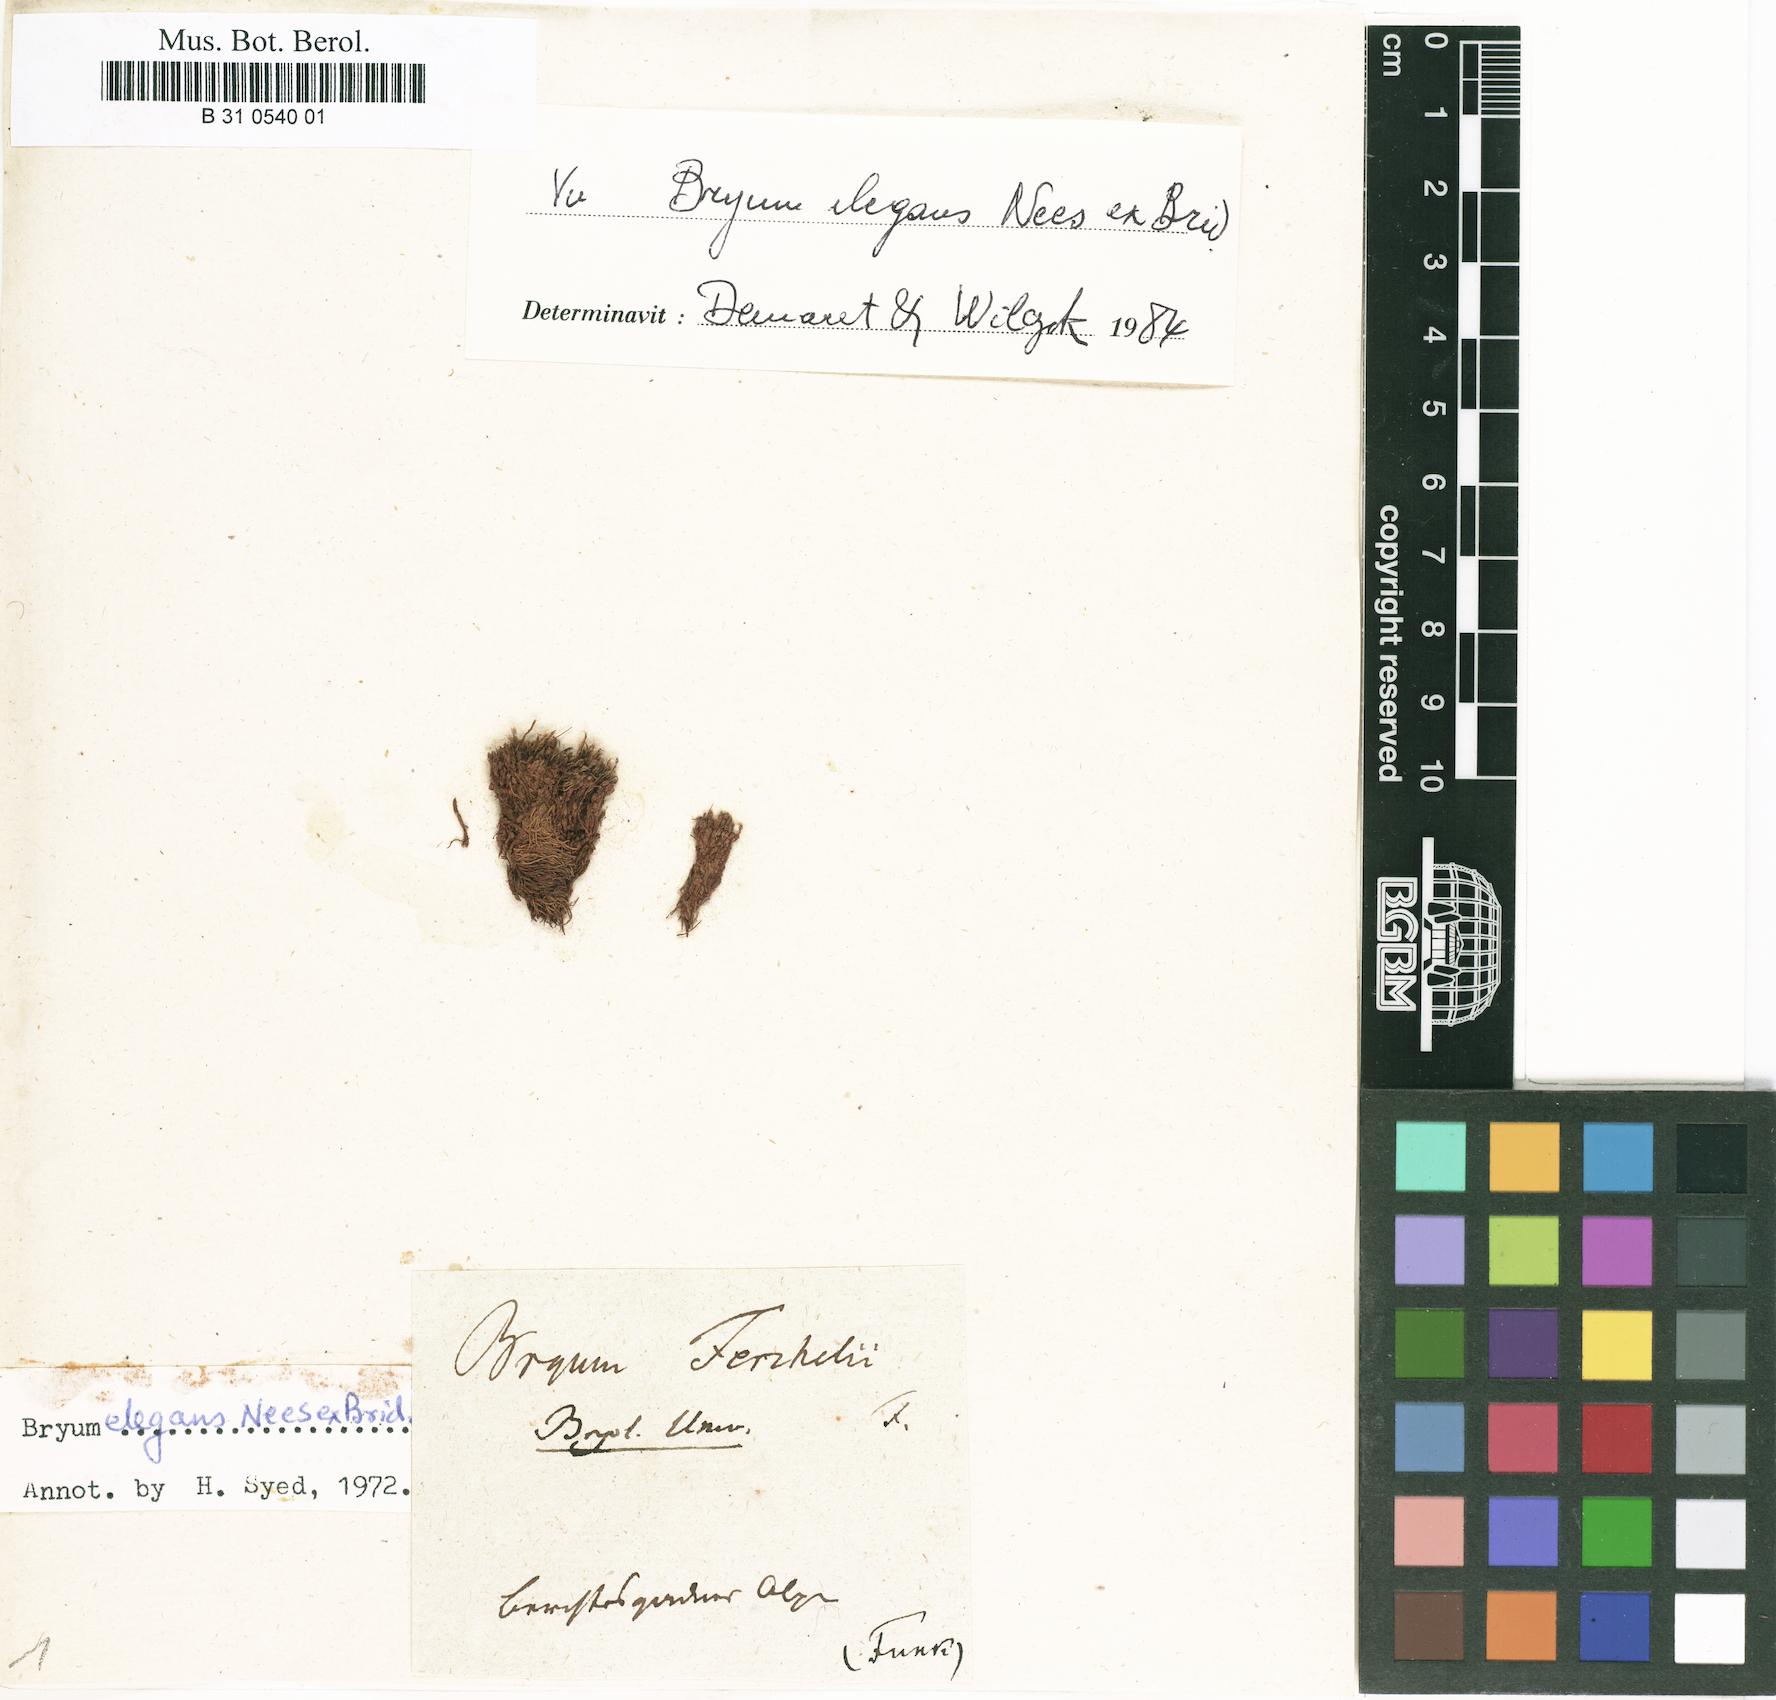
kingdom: Plantae
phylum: Bryophyta
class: Bryopsida
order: Bryales
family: Bryaceae
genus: Rosulabryum
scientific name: Rosulabryum elegans
